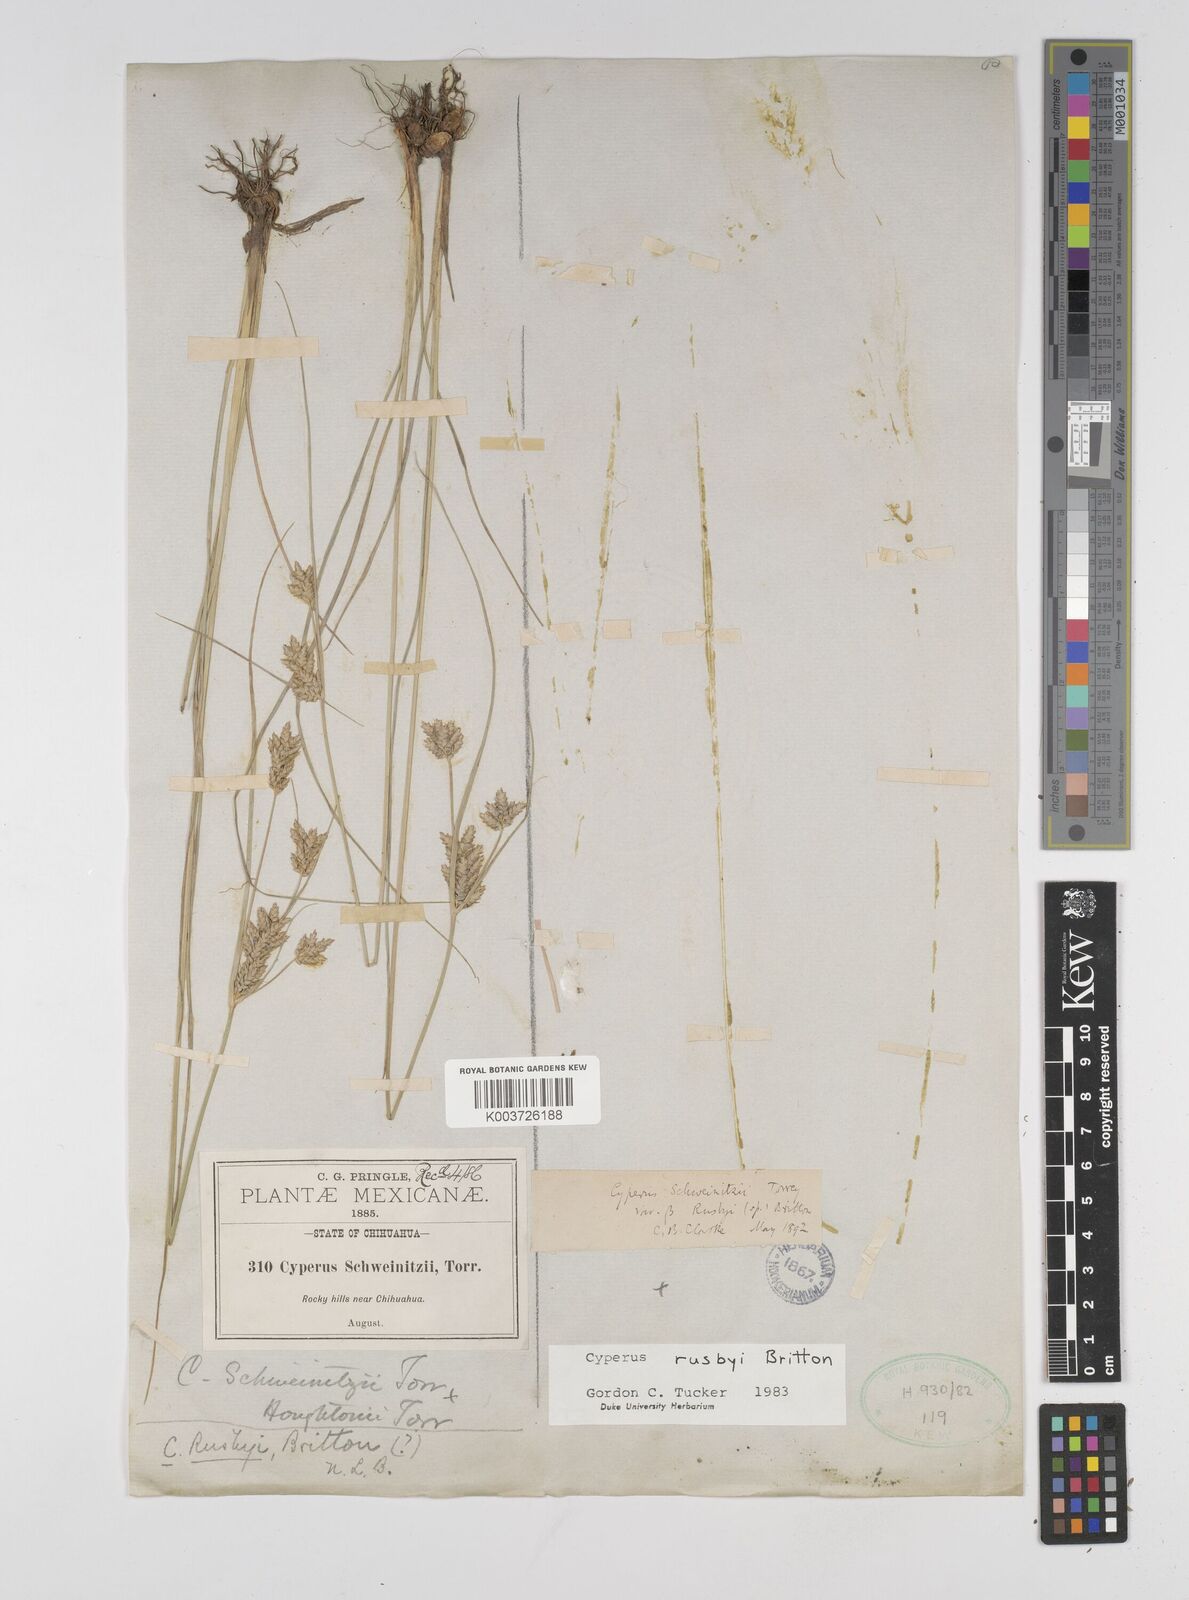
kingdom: Plantae
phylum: Tracheophyta
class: Liliopsida
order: Poales
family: Cyperaceae
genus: Cyperus
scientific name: Cyperus sphaerolepis
